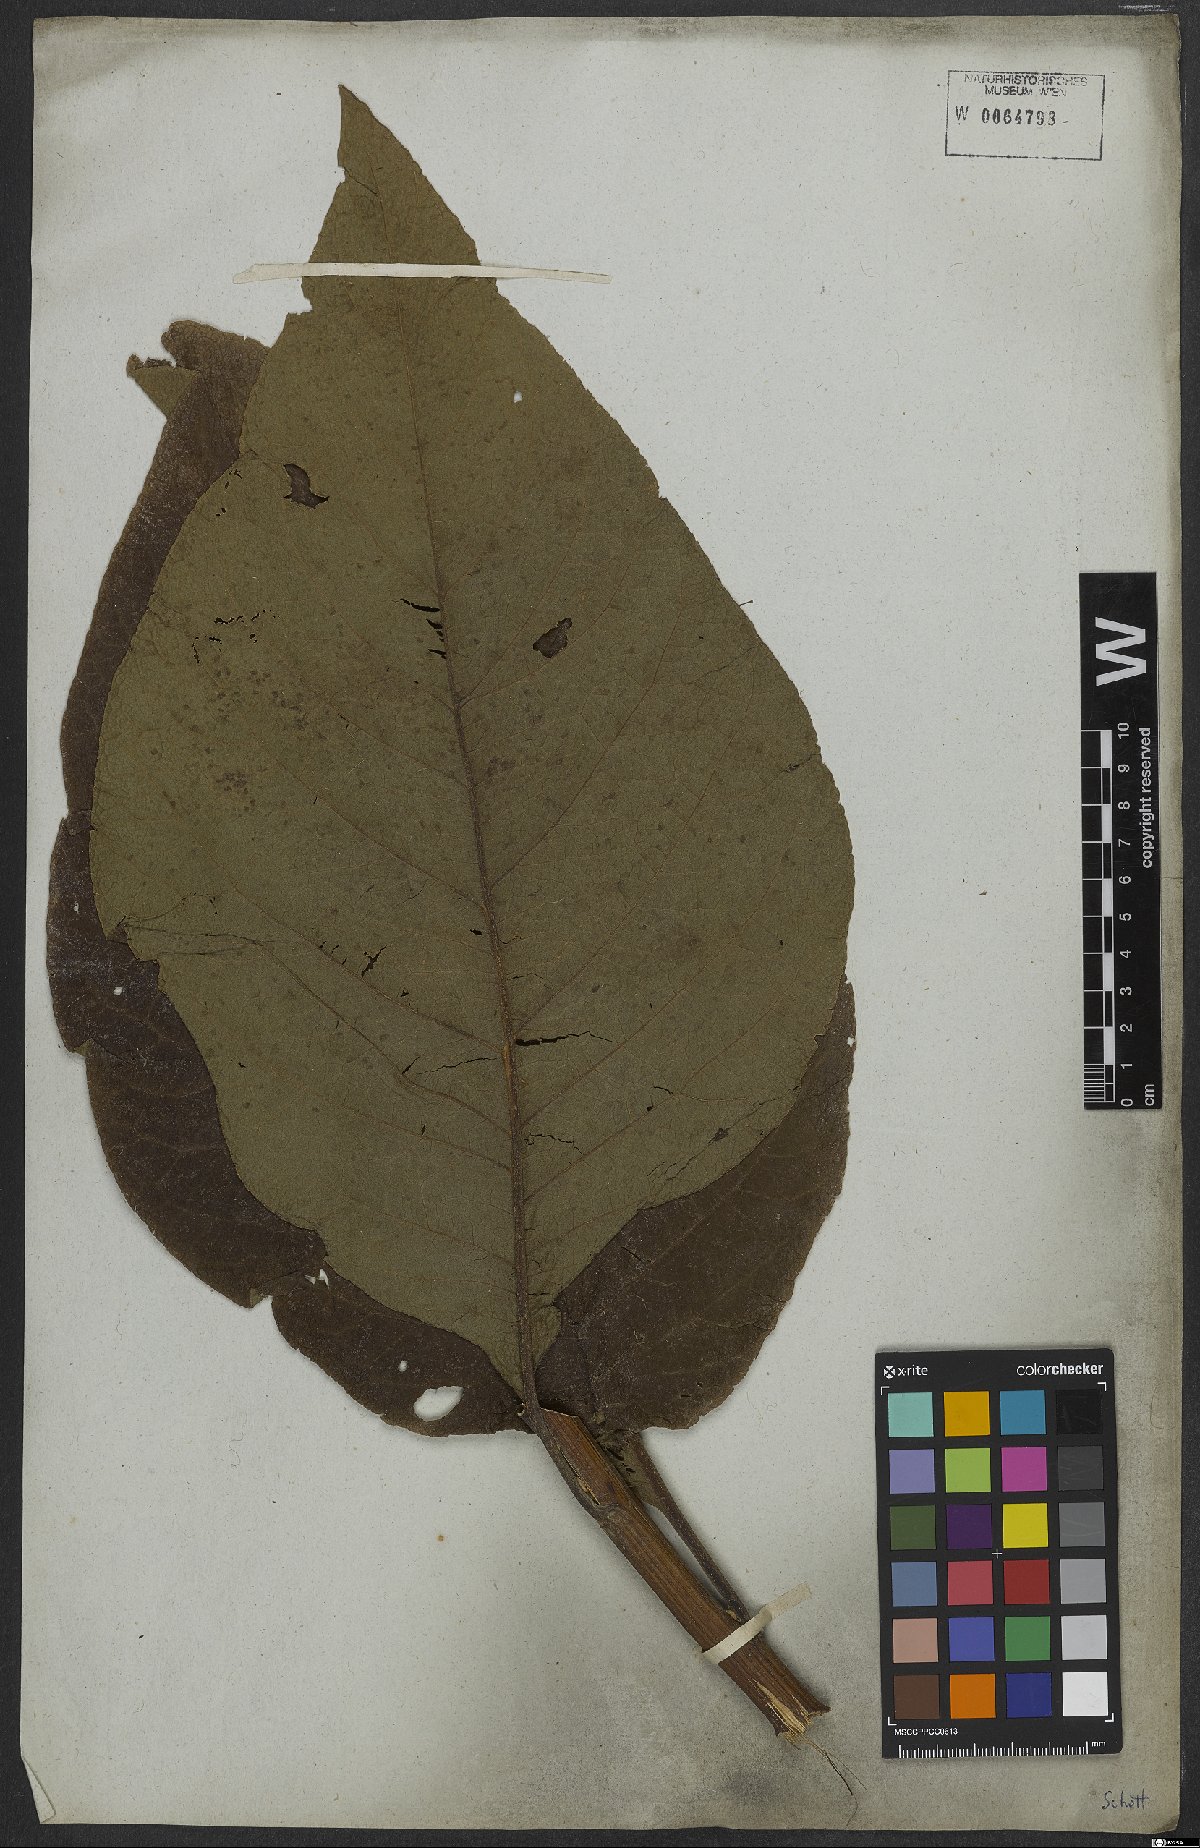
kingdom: Plantae
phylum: Tracheophyta
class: Magnoliopsida
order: Asterales
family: Asteraceae
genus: Gymnanthemum
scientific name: Gymnanthemum theophrastifolium
